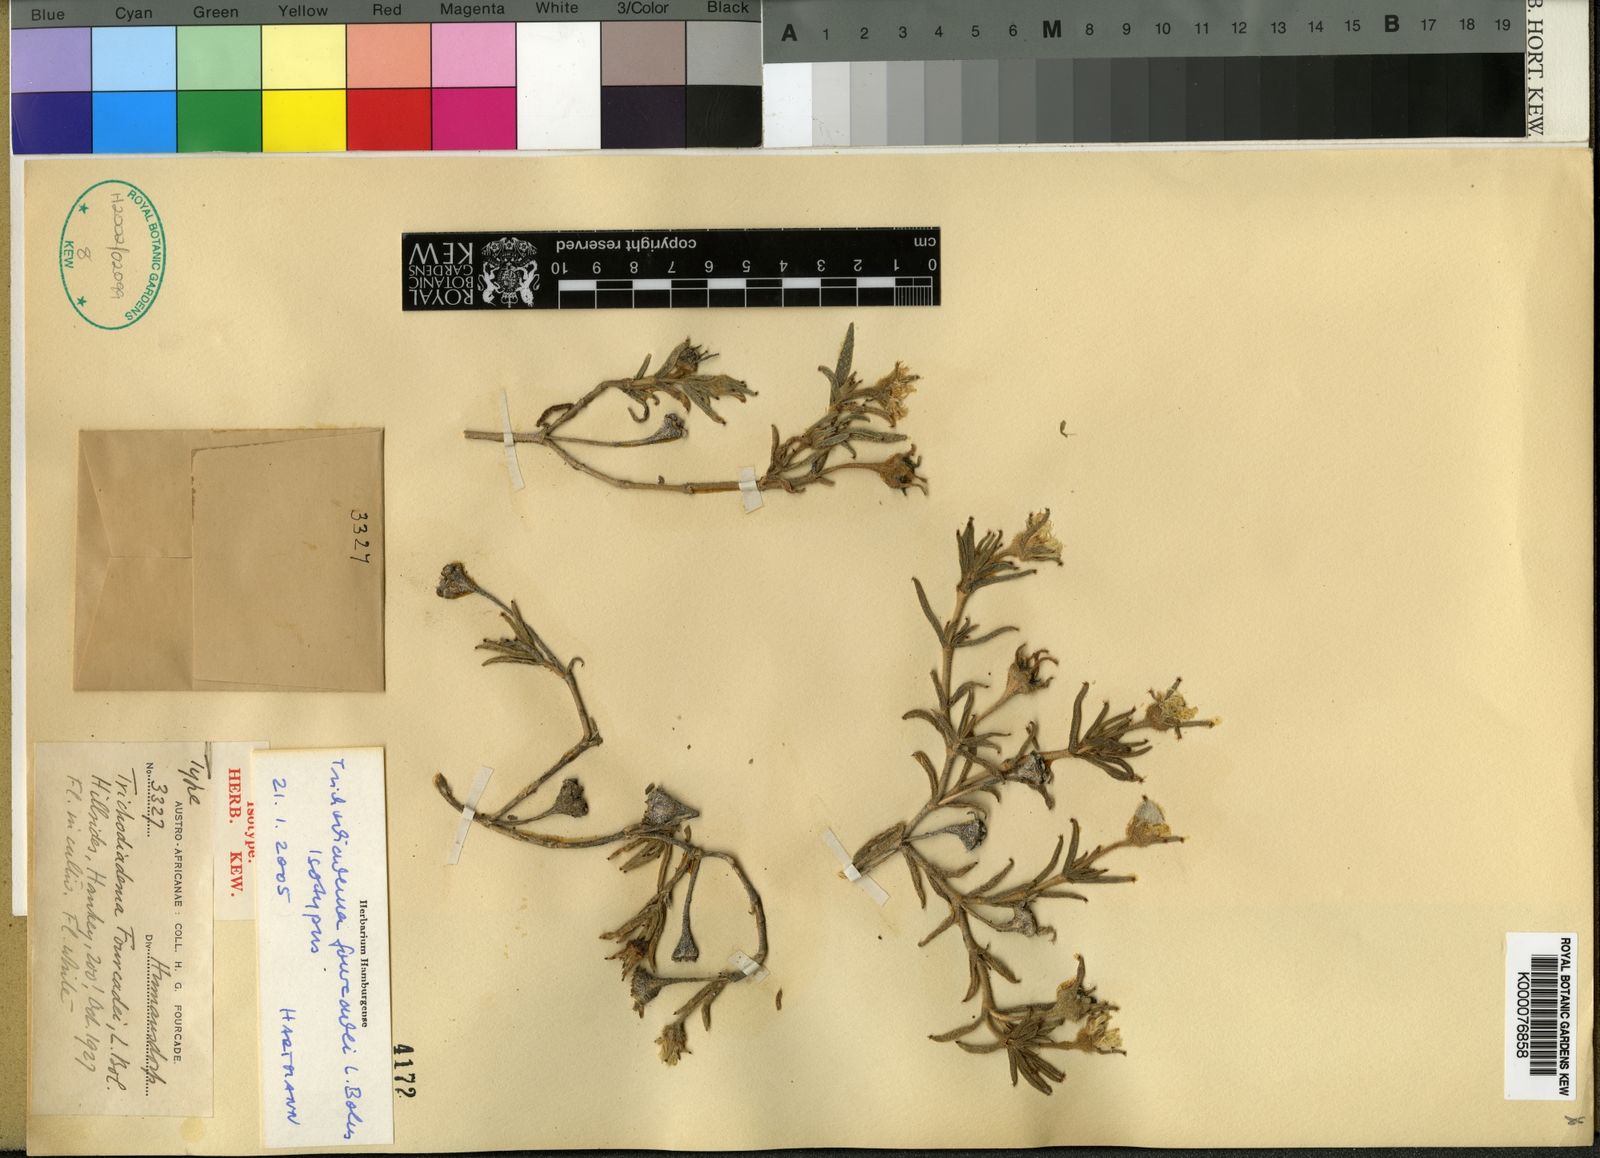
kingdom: Plantae
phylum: Tracheophyta
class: Magnoliopsida
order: Caryophyllales
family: Aizoaceae
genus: Trichodiadema
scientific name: Trichodiadema fourcadei
